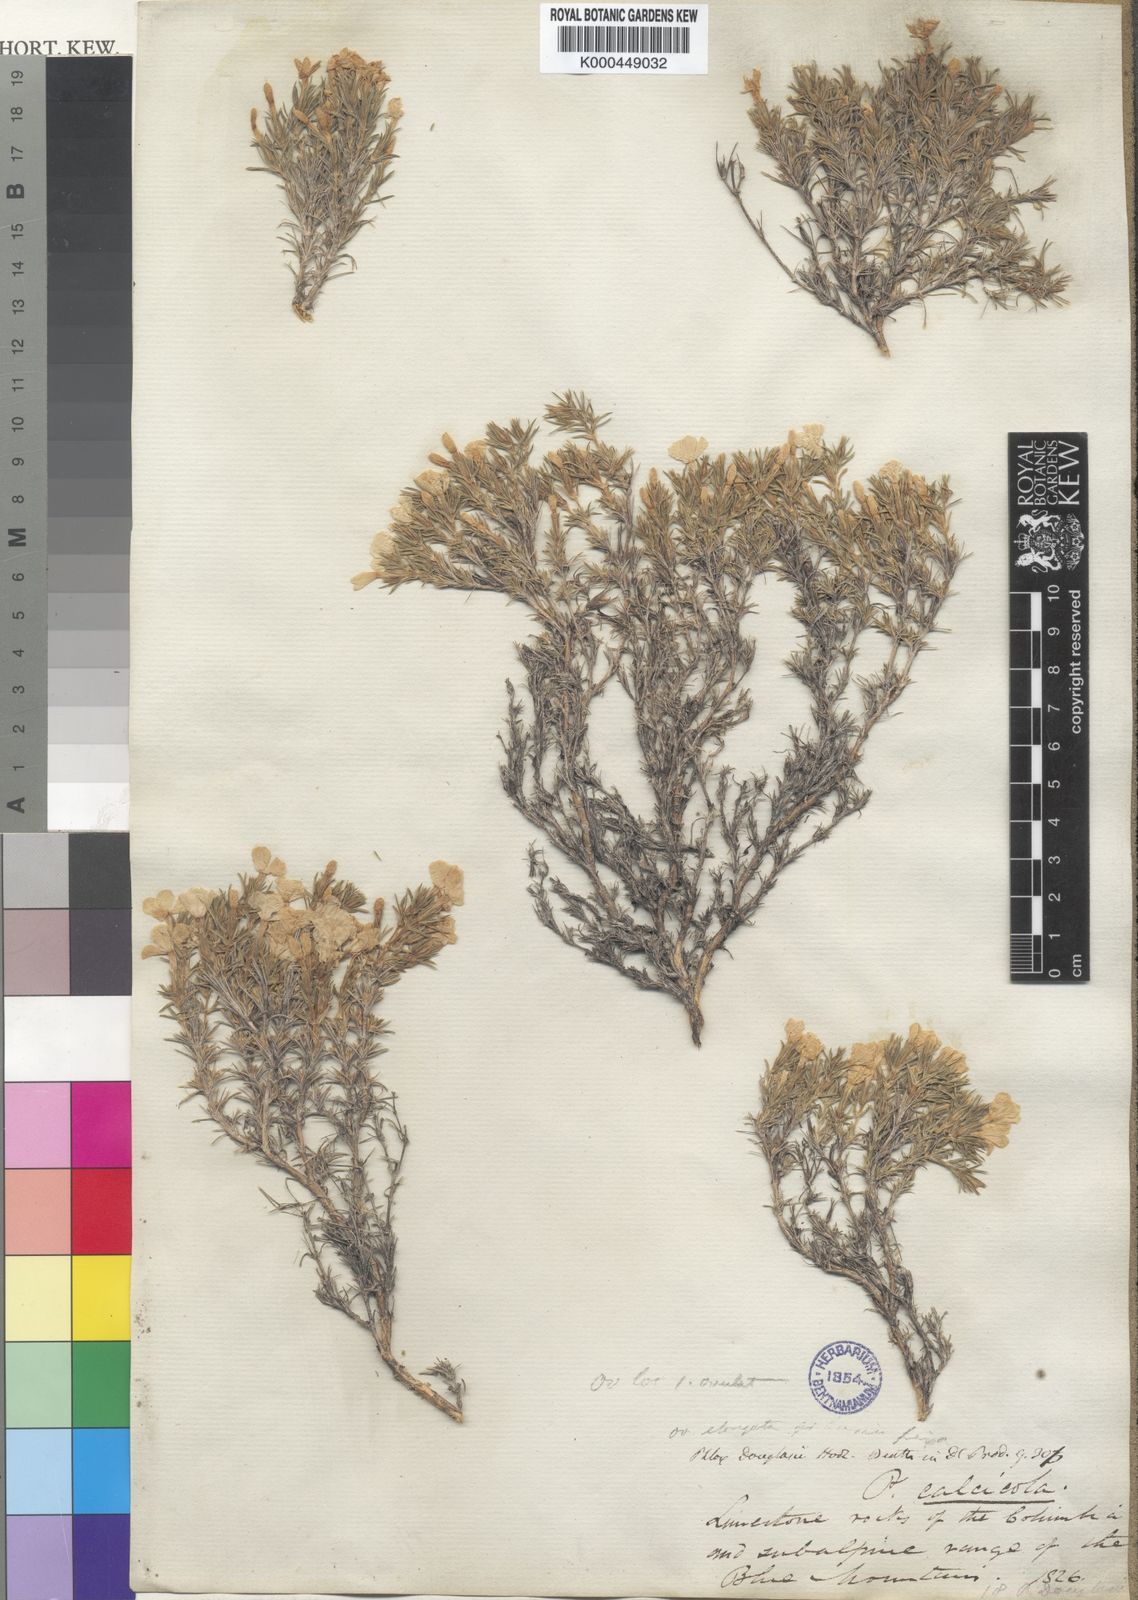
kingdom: Plantae
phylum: Tracheophyta
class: Magnoliopsida
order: Ericales
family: Polemoniaceae
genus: Phlox
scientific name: Phlox douglasii
